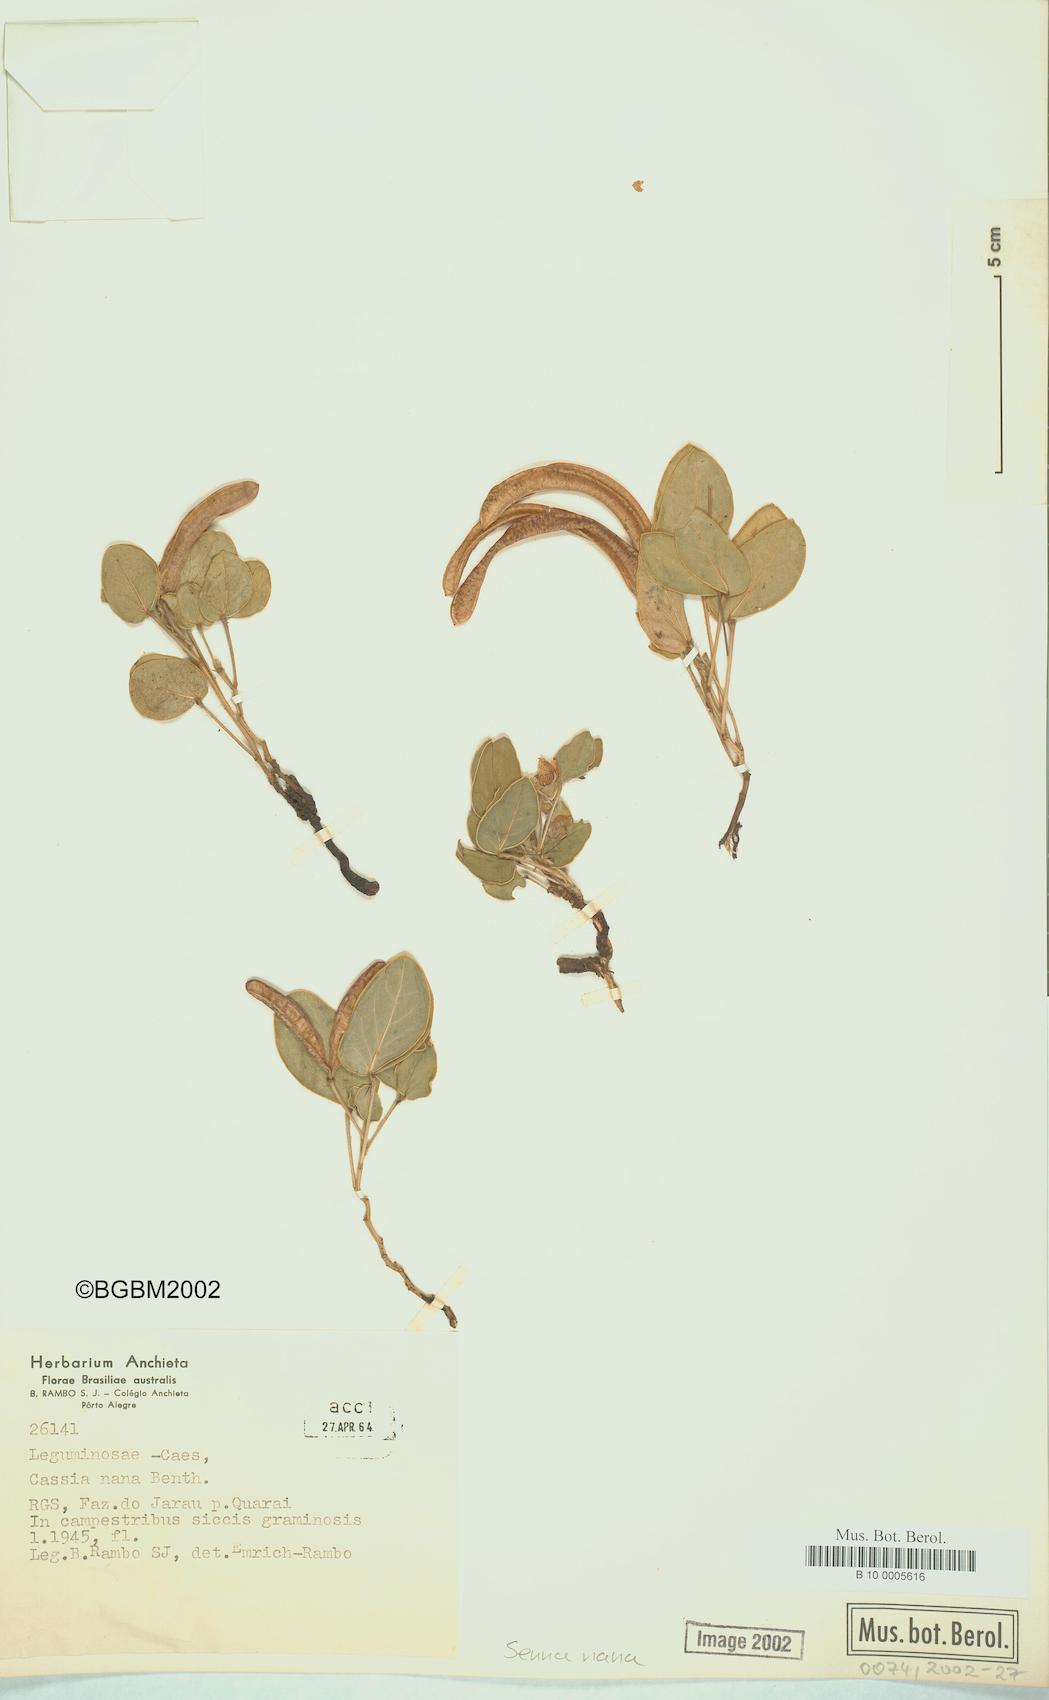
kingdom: Plantae
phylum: Tracheophyta
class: Magnoliopsida
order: Fabales
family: Fabaceae
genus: Senna
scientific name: Senna nana
